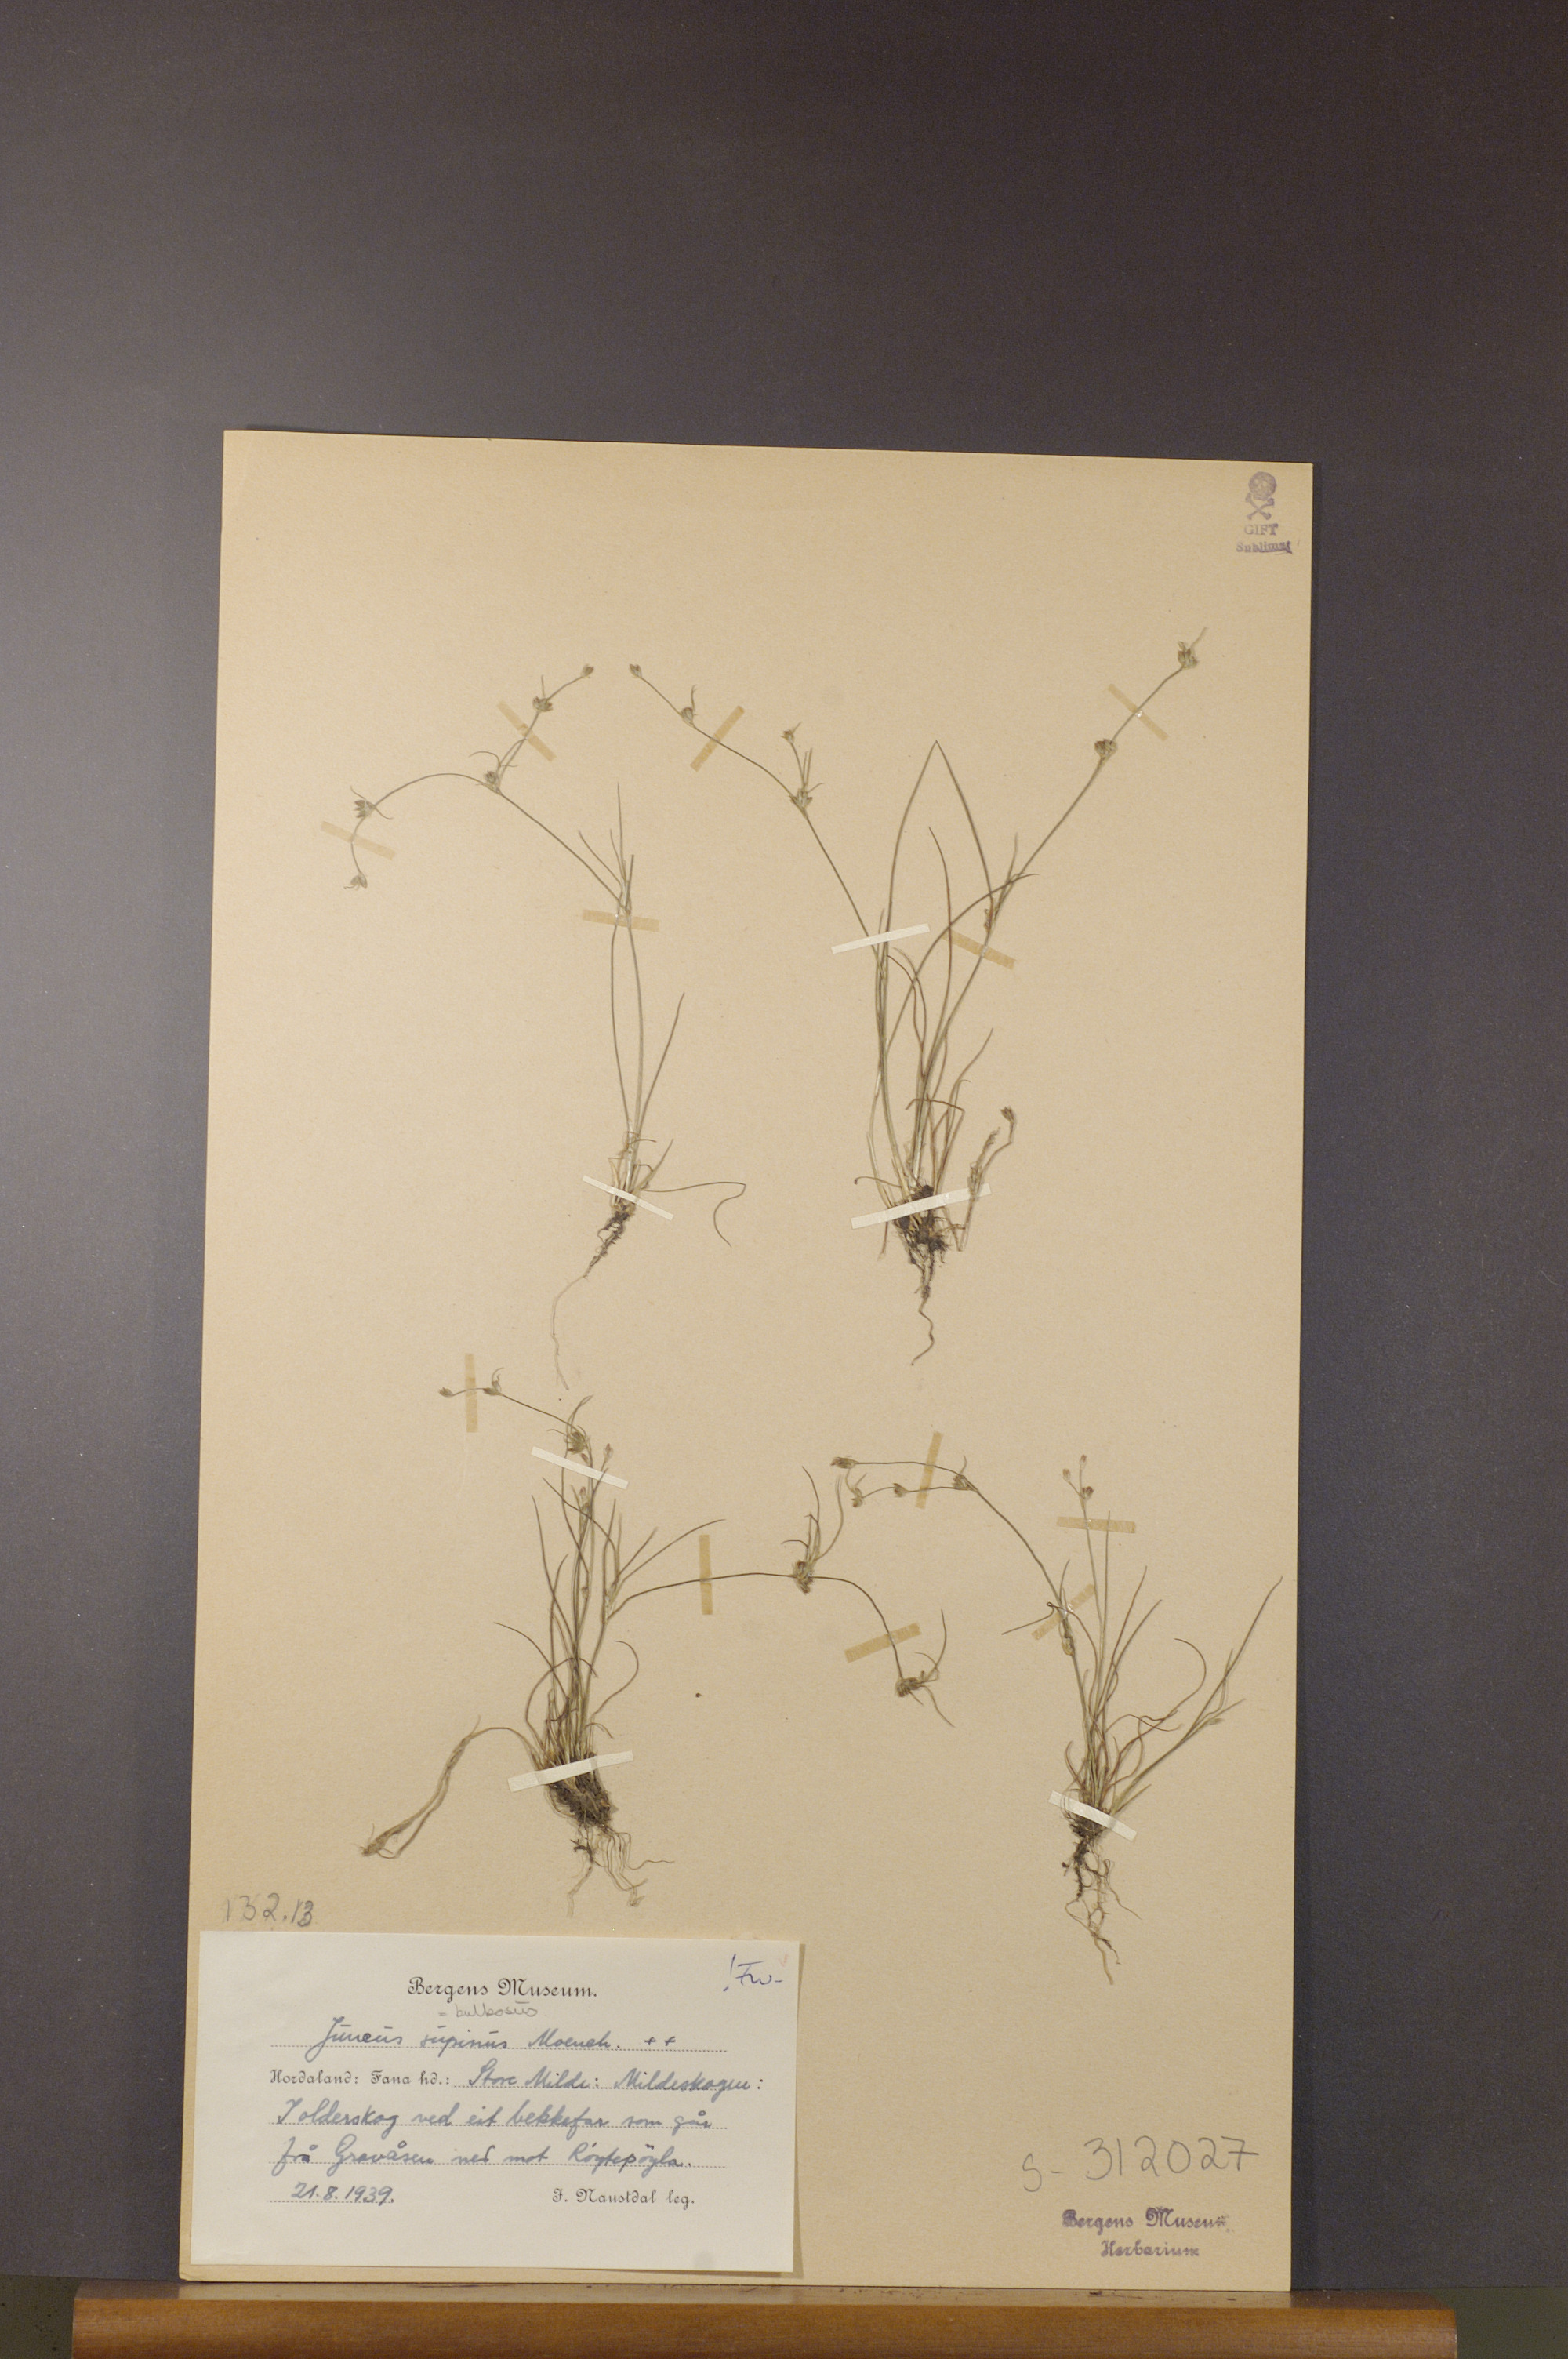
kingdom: Plantae
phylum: Tracheophyta
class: Liliopsida
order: Poales
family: Juncaceae
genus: Juncus
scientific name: Juncus bulbosus
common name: Bulbous rush
